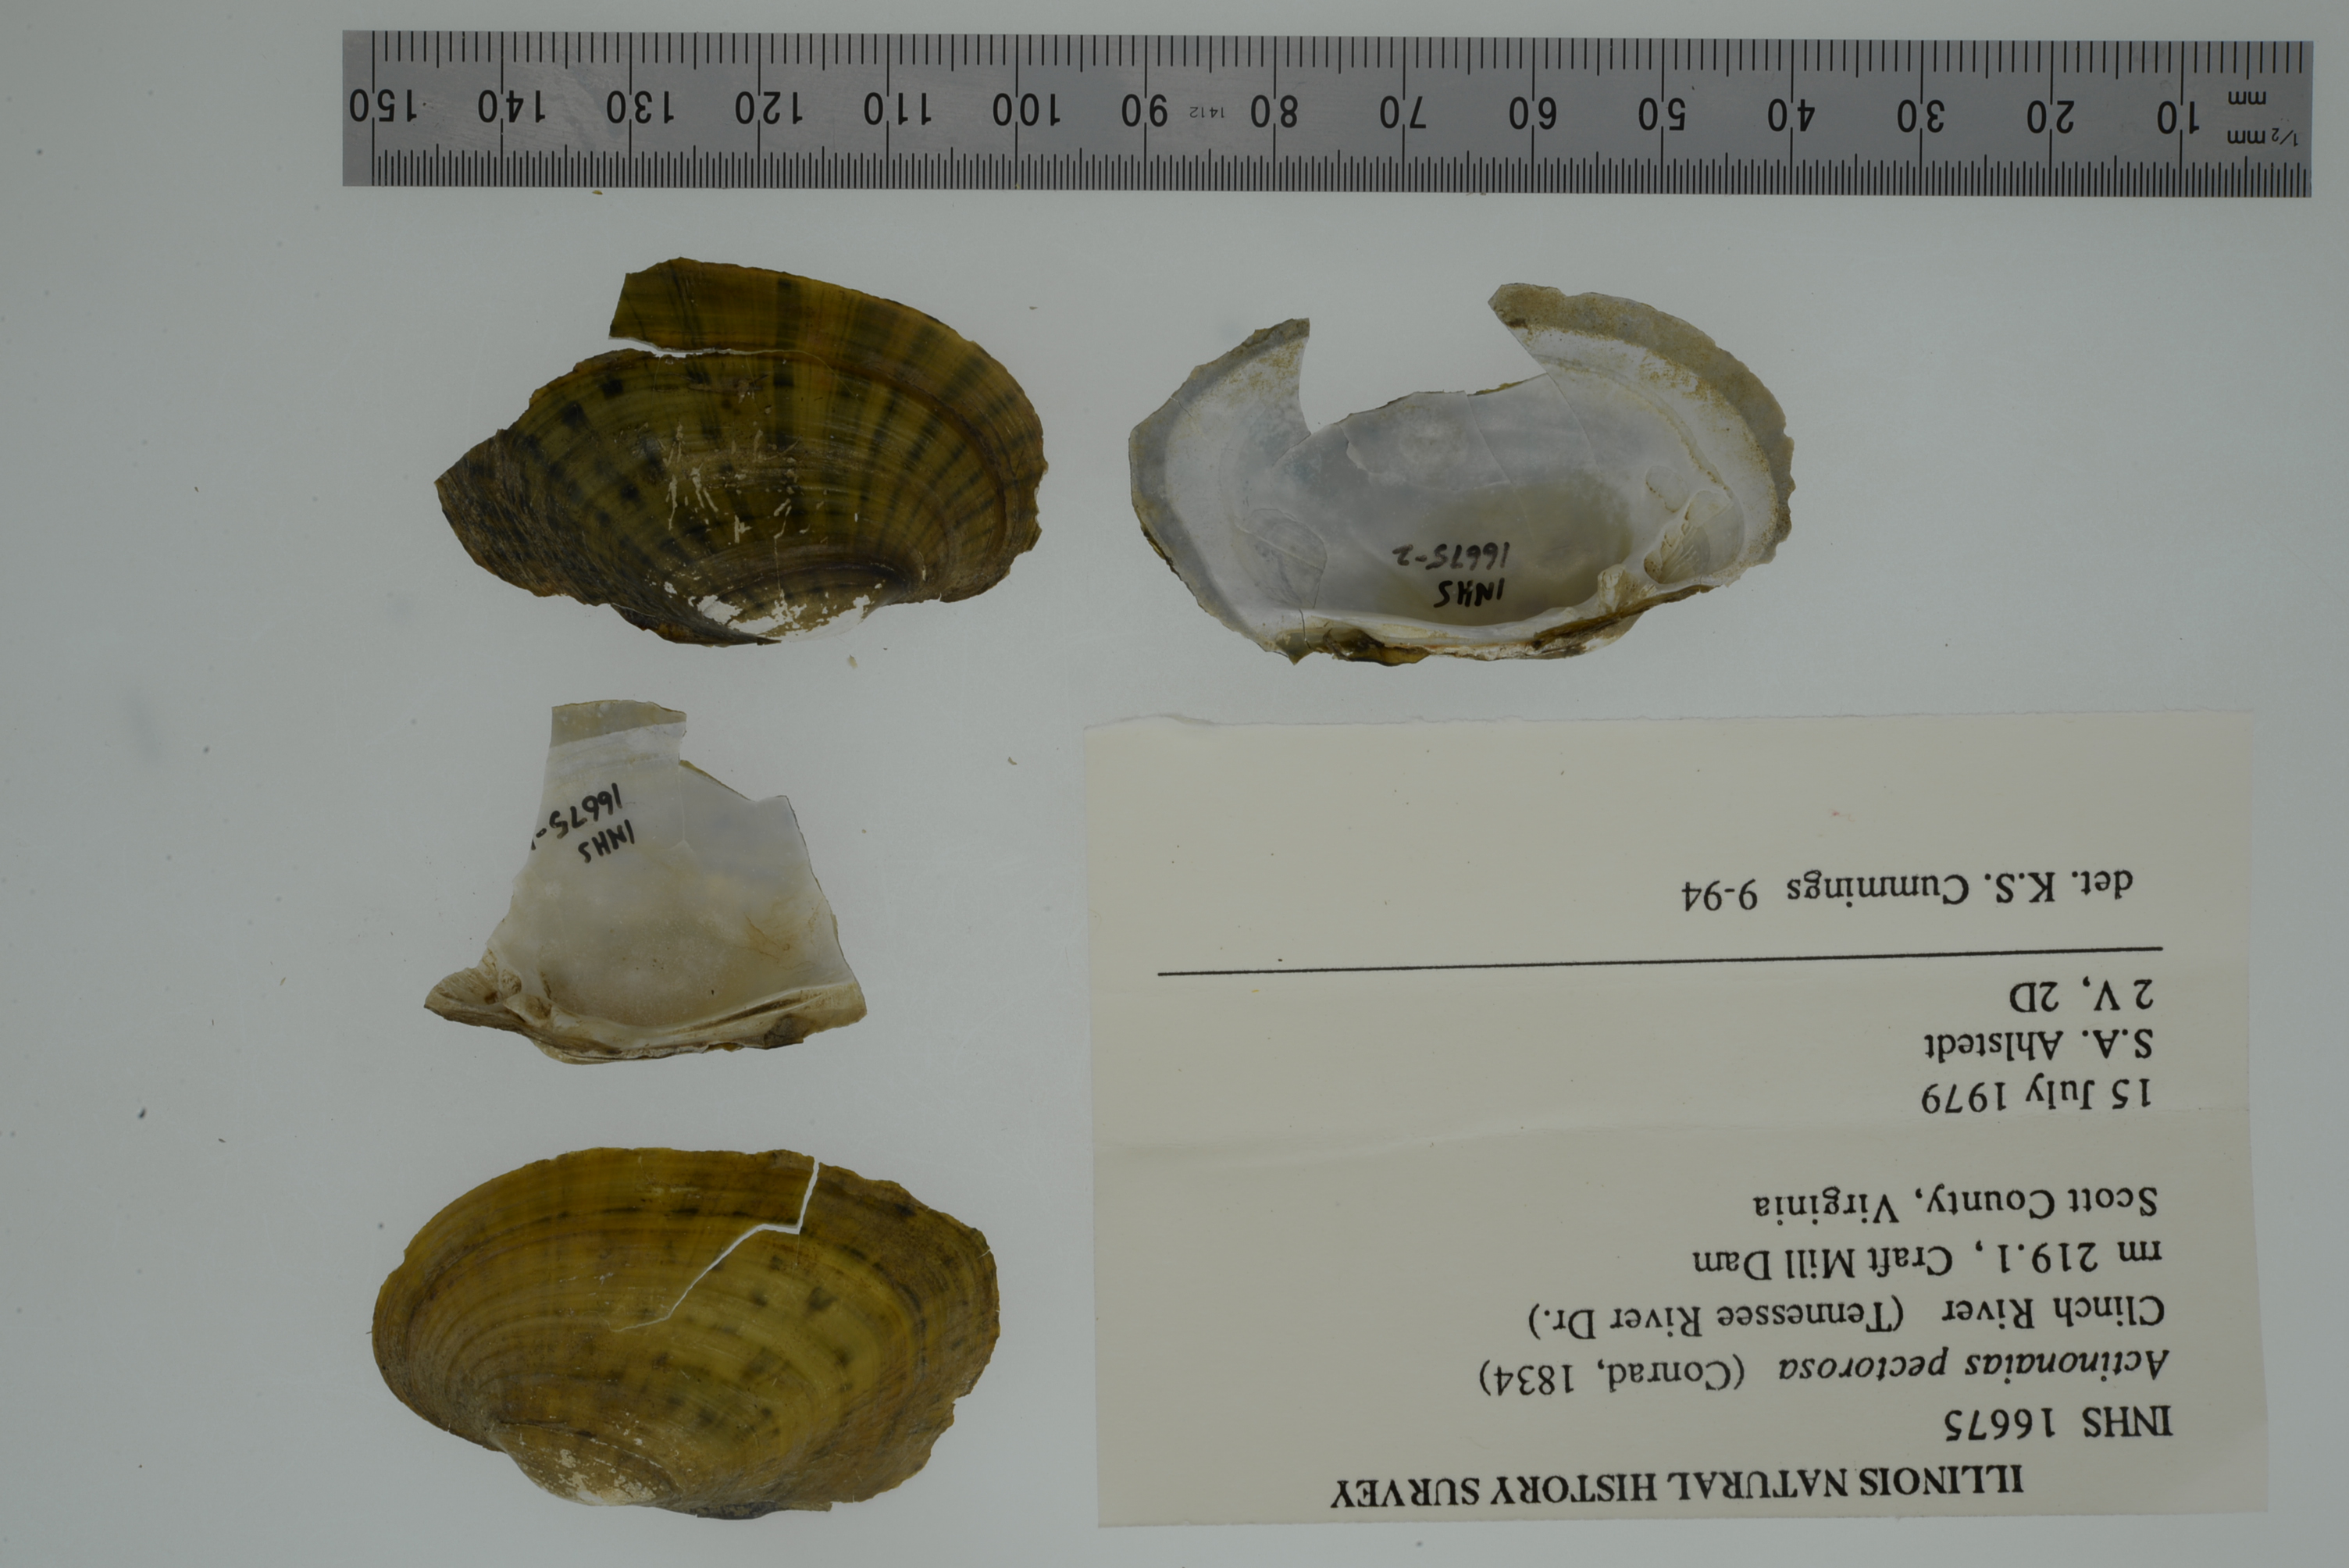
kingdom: Animalia
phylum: Mollusca
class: Bivalvia
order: Unionida
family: Unionidae
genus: Ortmanniana
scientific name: Ortmanniana pectorosa
